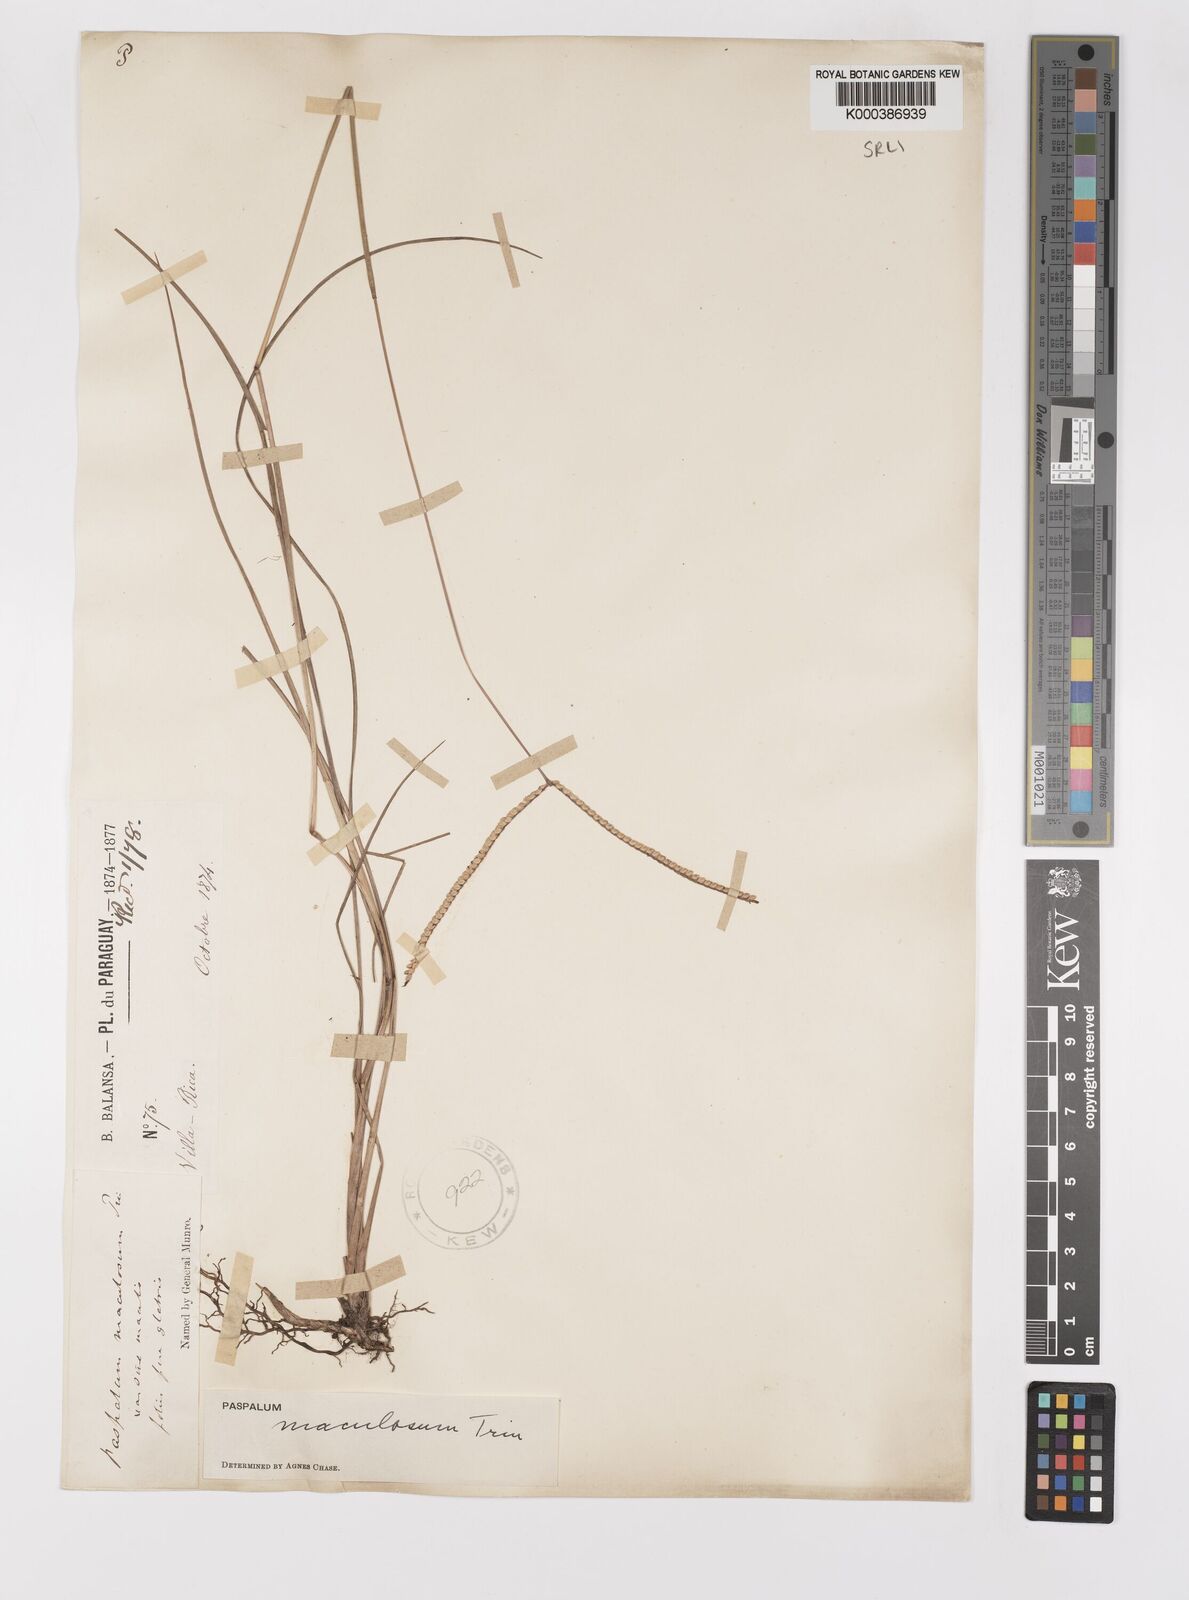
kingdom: Plantae
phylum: Tracheophyta
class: Liliopsida
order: Poales
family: Poaceae
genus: Paspalum
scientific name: Paspalum maculosum
